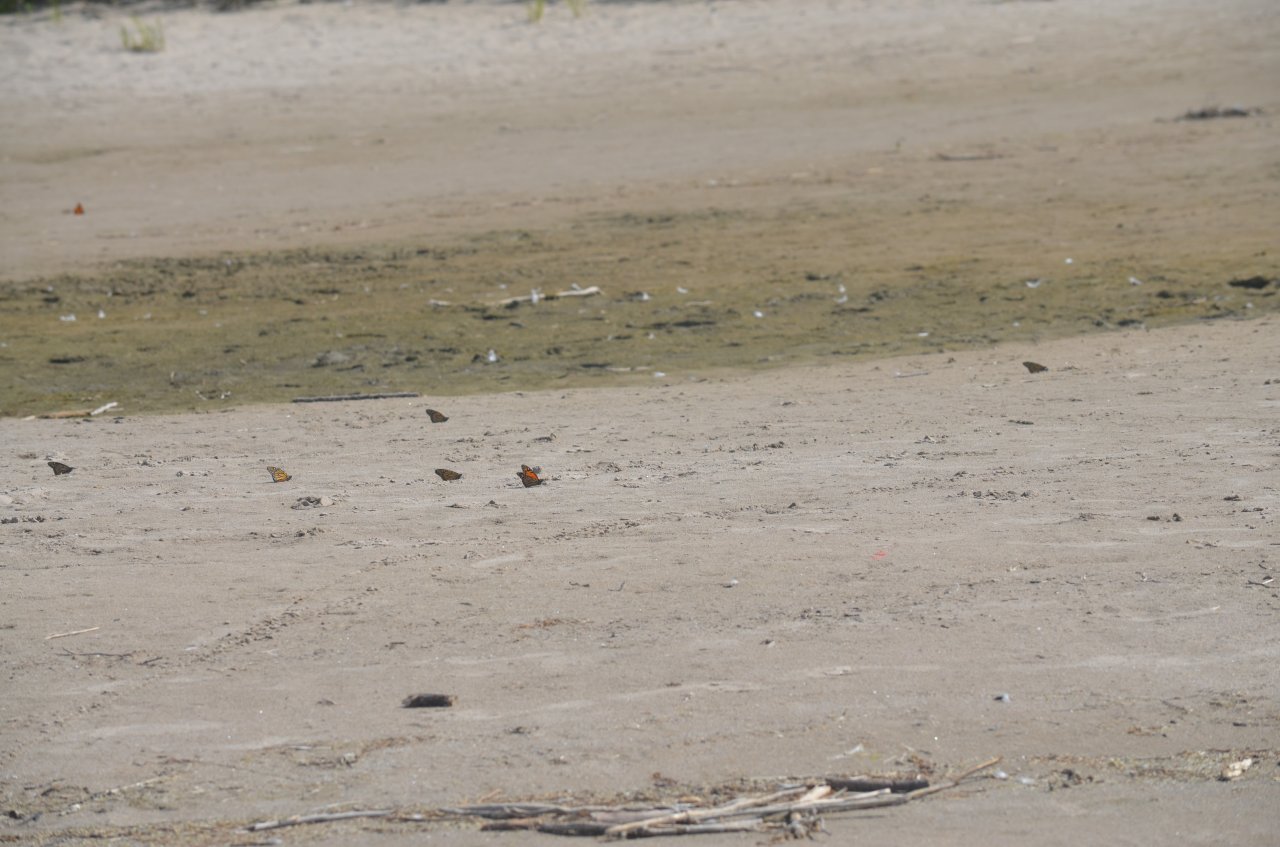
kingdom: Animalia
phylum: Arthropoda
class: Insecta
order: Lepidoptera
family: Nymphalidae
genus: Danaus
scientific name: Danaus plexippus
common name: Monarch
